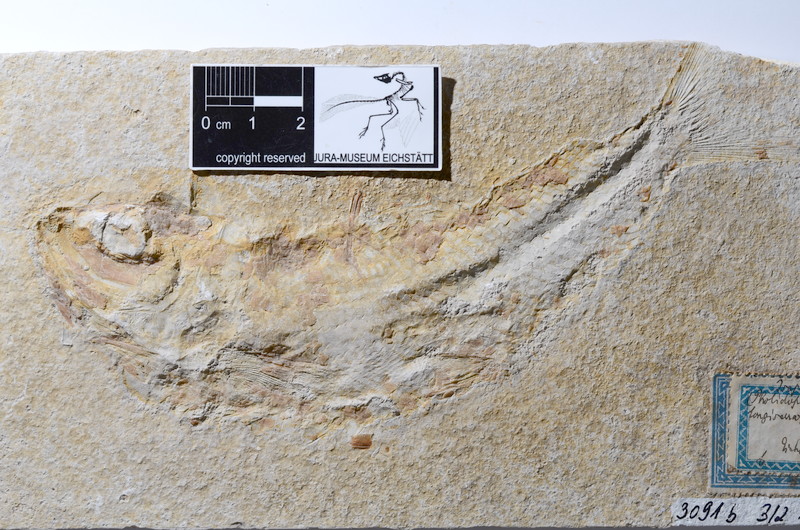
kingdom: Animalia
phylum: Chordata
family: Ankylophoridae
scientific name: Ankylophoridae
